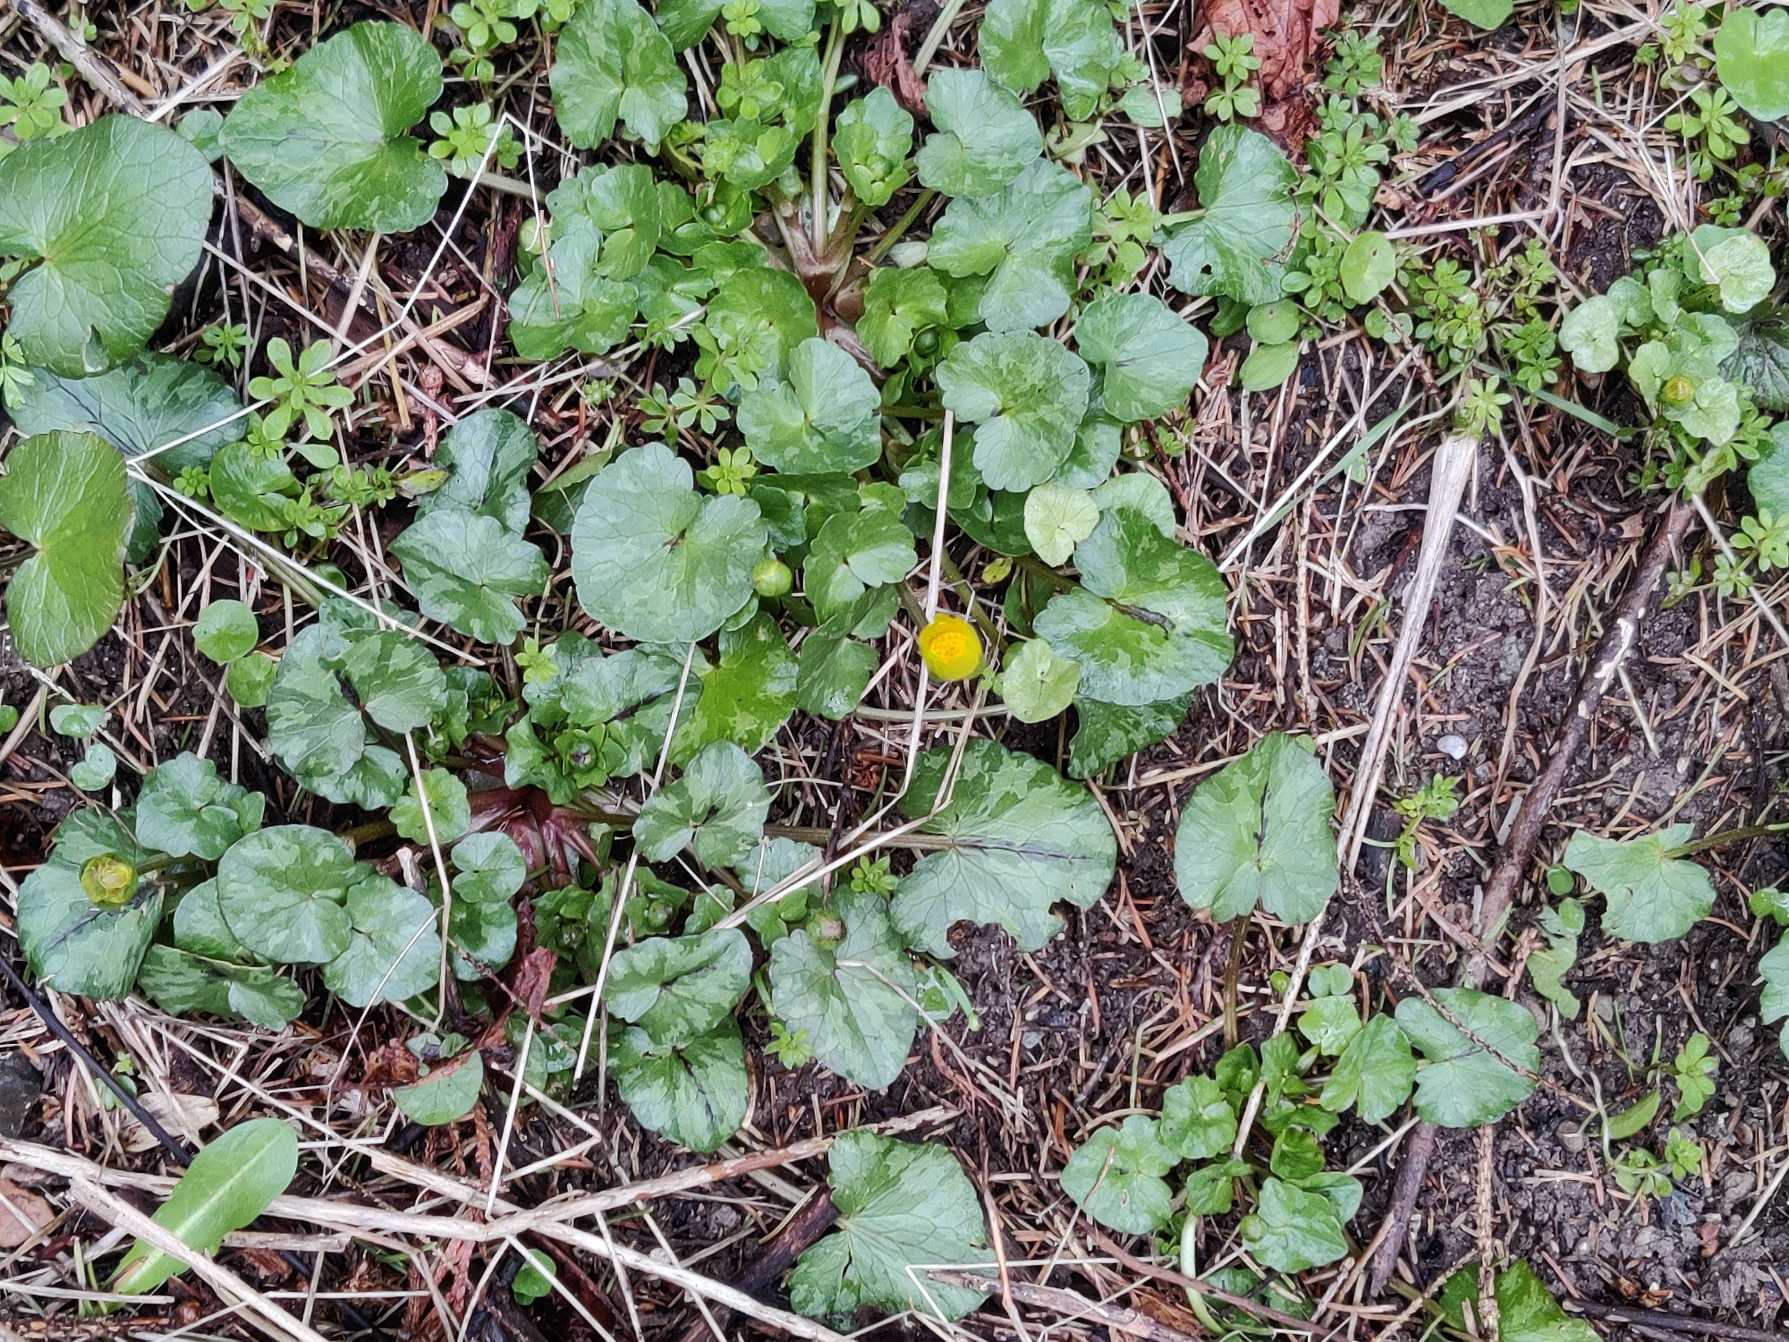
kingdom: Plantae
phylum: Tracheophyta
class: Magnoliopsida
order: Ranunculales
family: Ranunculaceae
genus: Ficaria
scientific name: Ficaria verna
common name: Vorterod
